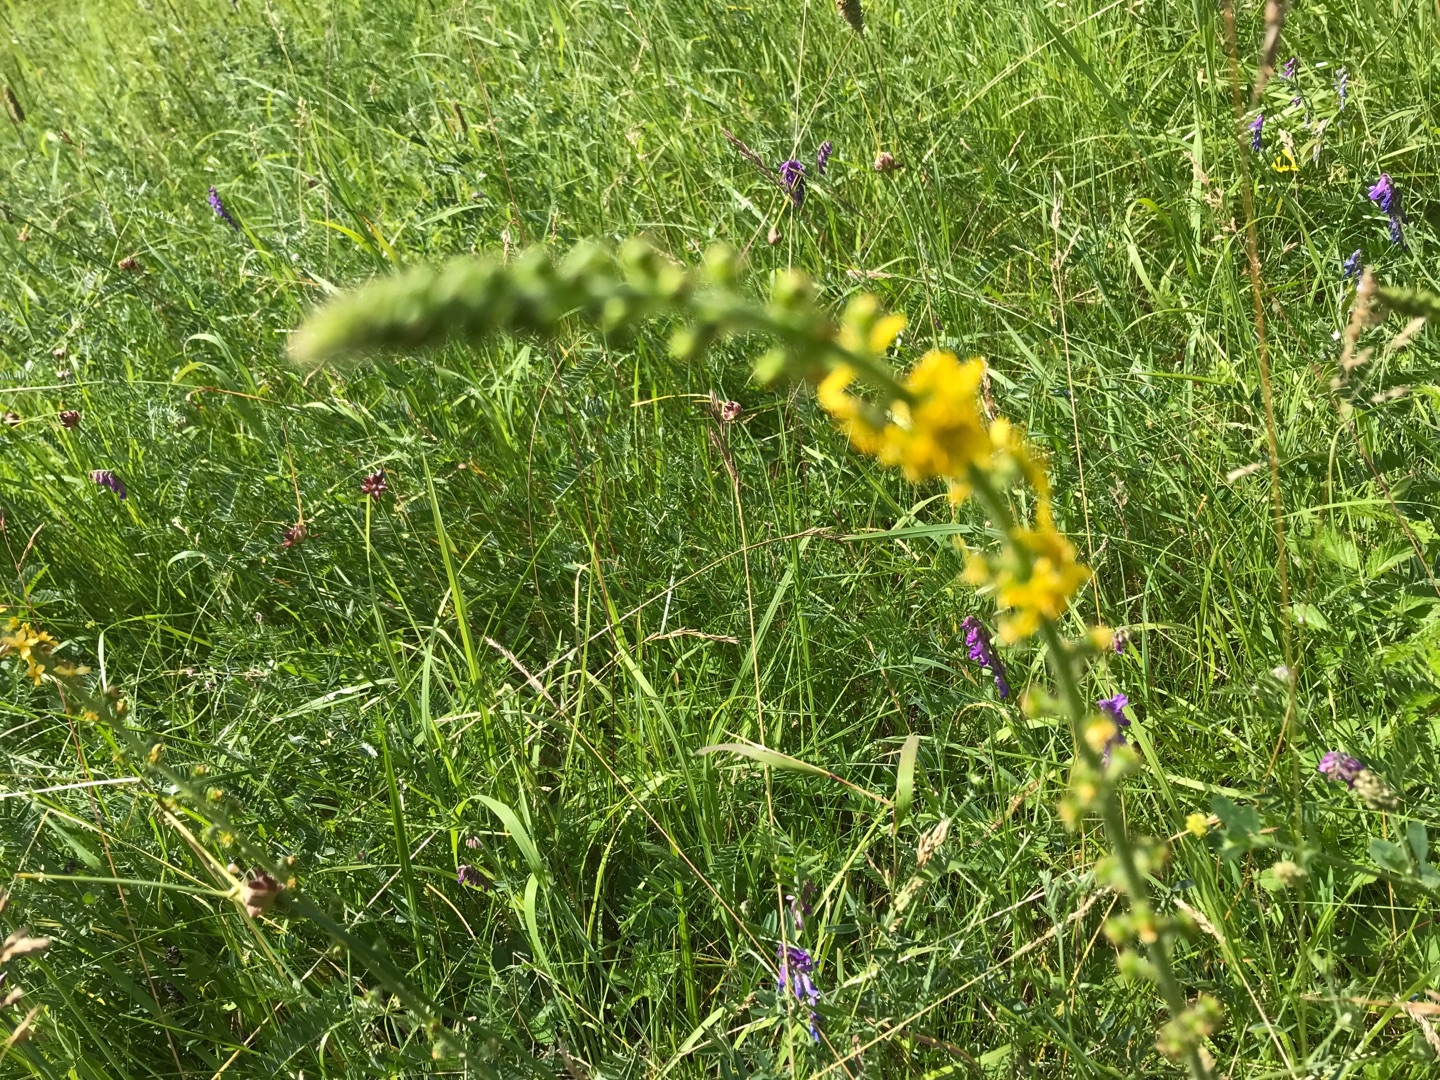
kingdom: Plantae
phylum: Tracheophyta
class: Magnoliopsida
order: Rosales
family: Rosaceae
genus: Agrimonia
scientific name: Agrimonia
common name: Agermåneslægten
